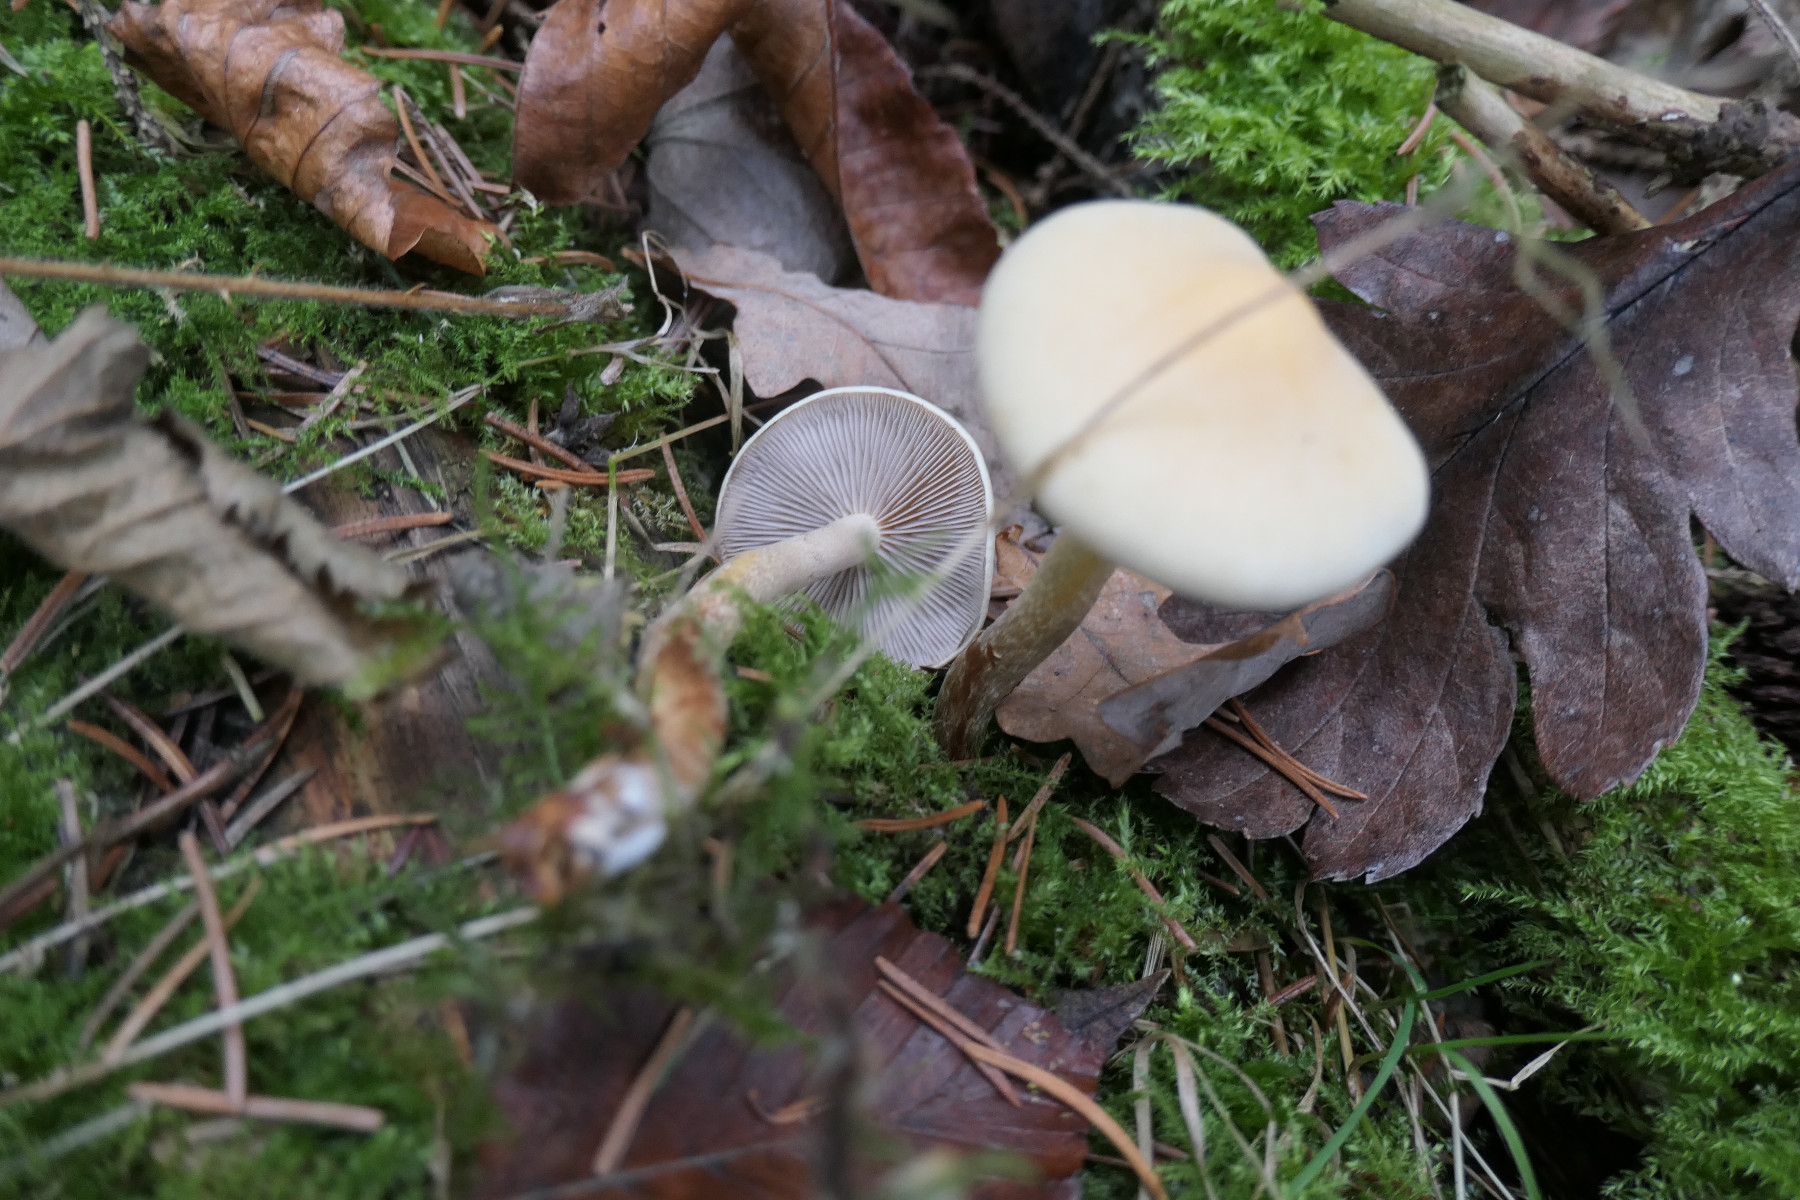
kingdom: Fungi
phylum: Basidiomycota
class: Agaricomycetes
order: Agaricales
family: Strophariaceae
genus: Hypholoma
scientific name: Hypholoma capnoides
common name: gran-svovlhat
